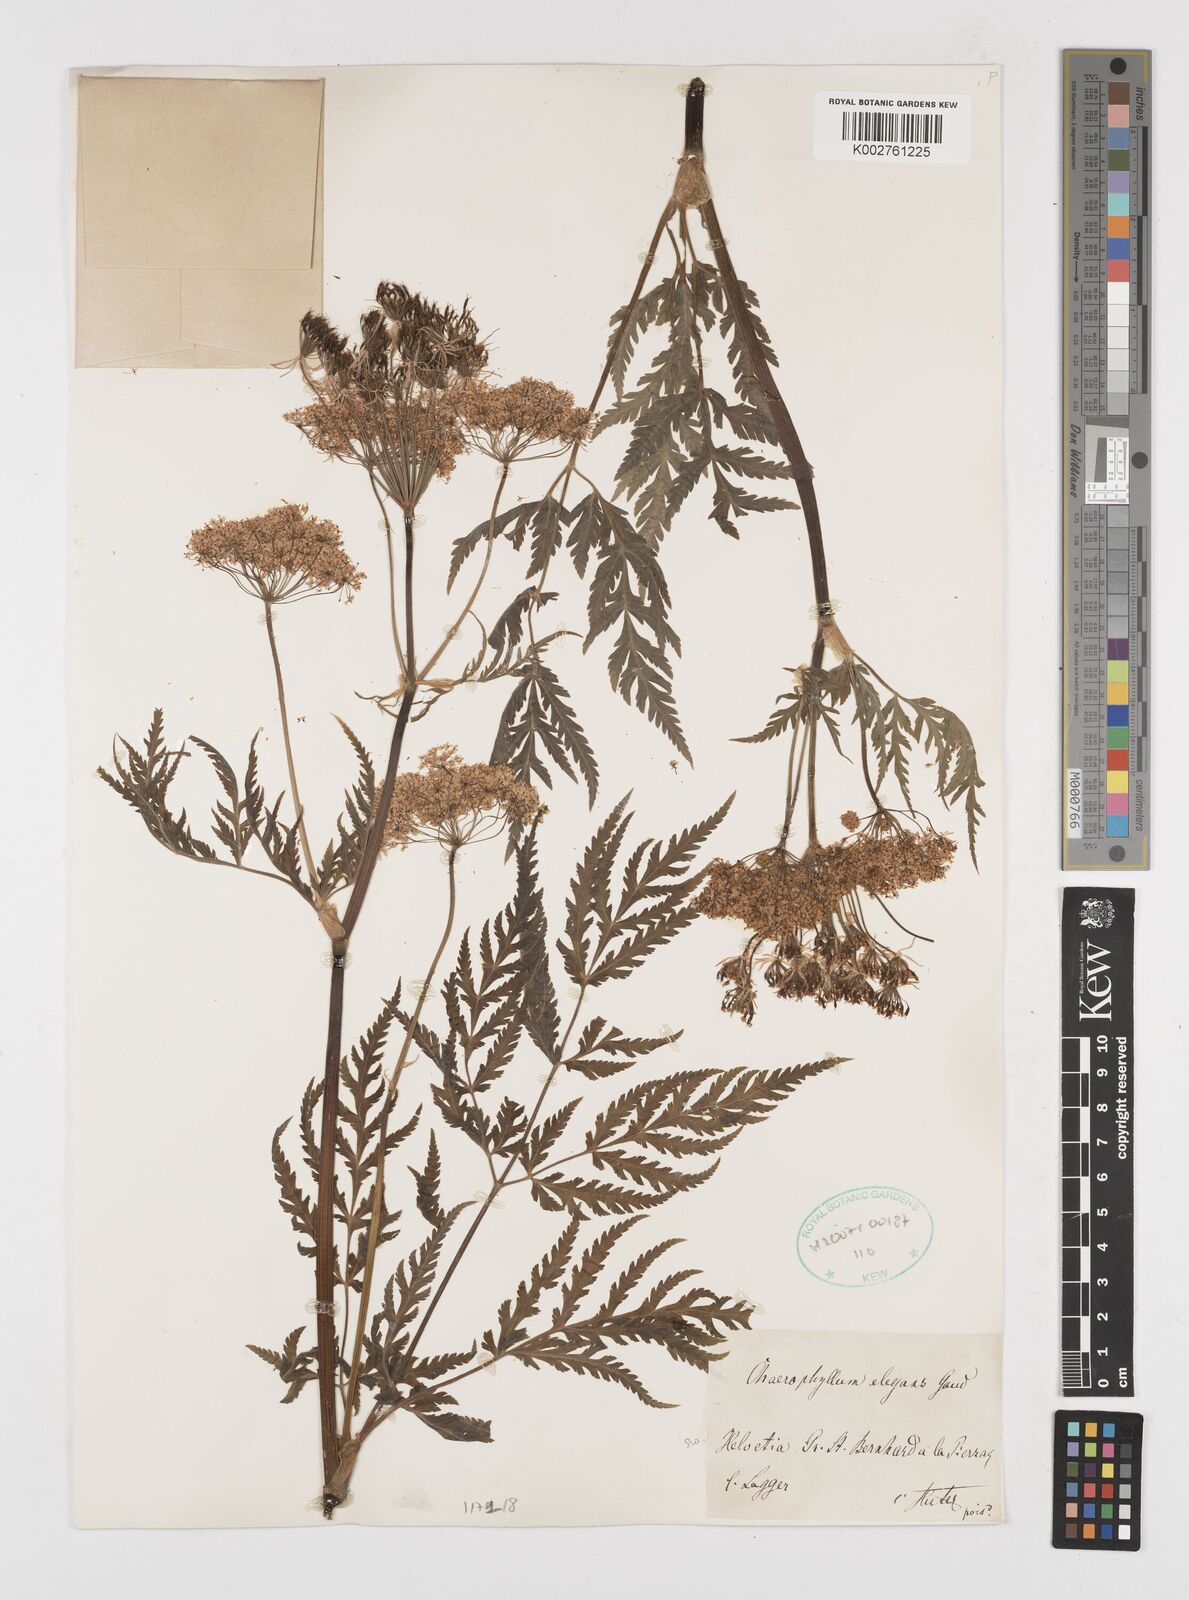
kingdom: Plantae
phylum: Tracheophyta
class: Magnoliopsida
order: Apiales
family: Apiaceae
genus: Chaerophyllum
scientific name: Chaerophyllum elegans
